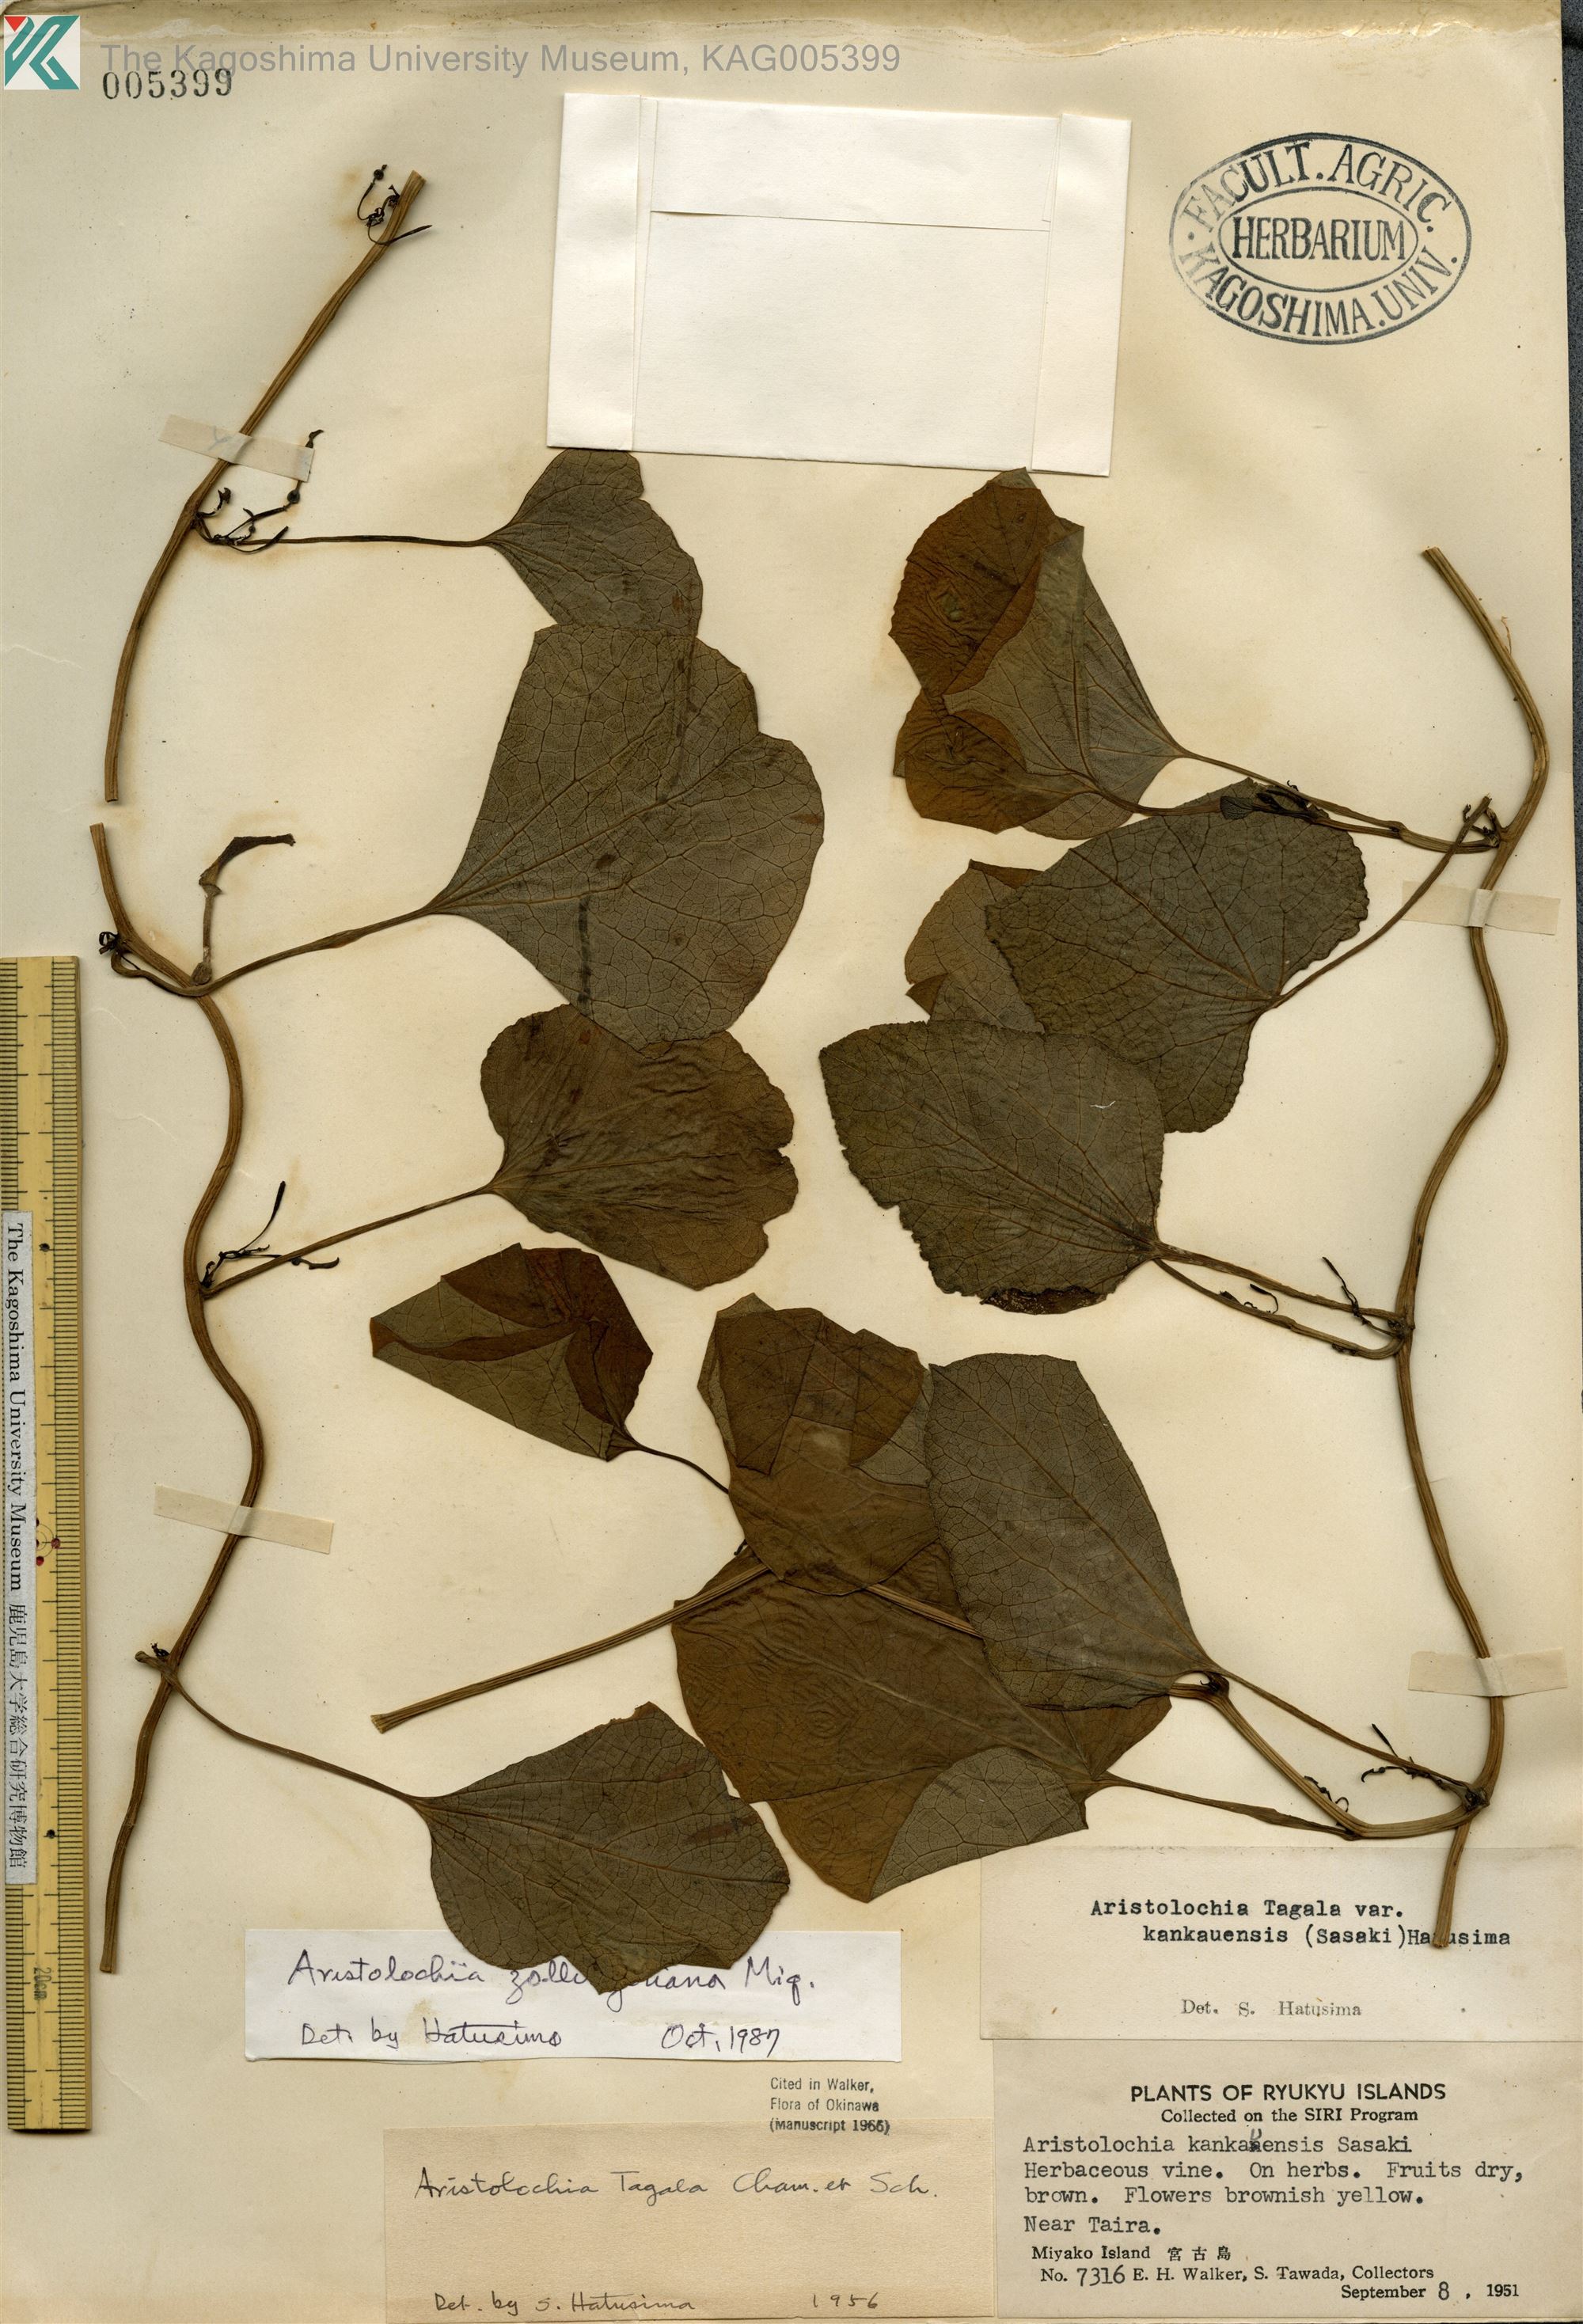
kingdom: Plantae
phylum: Tracheophyta
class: Magnoliopsida
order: Piperales
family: Aristolochiaceae
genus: Aristolochia
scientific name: Aristolochia zollingeriana
